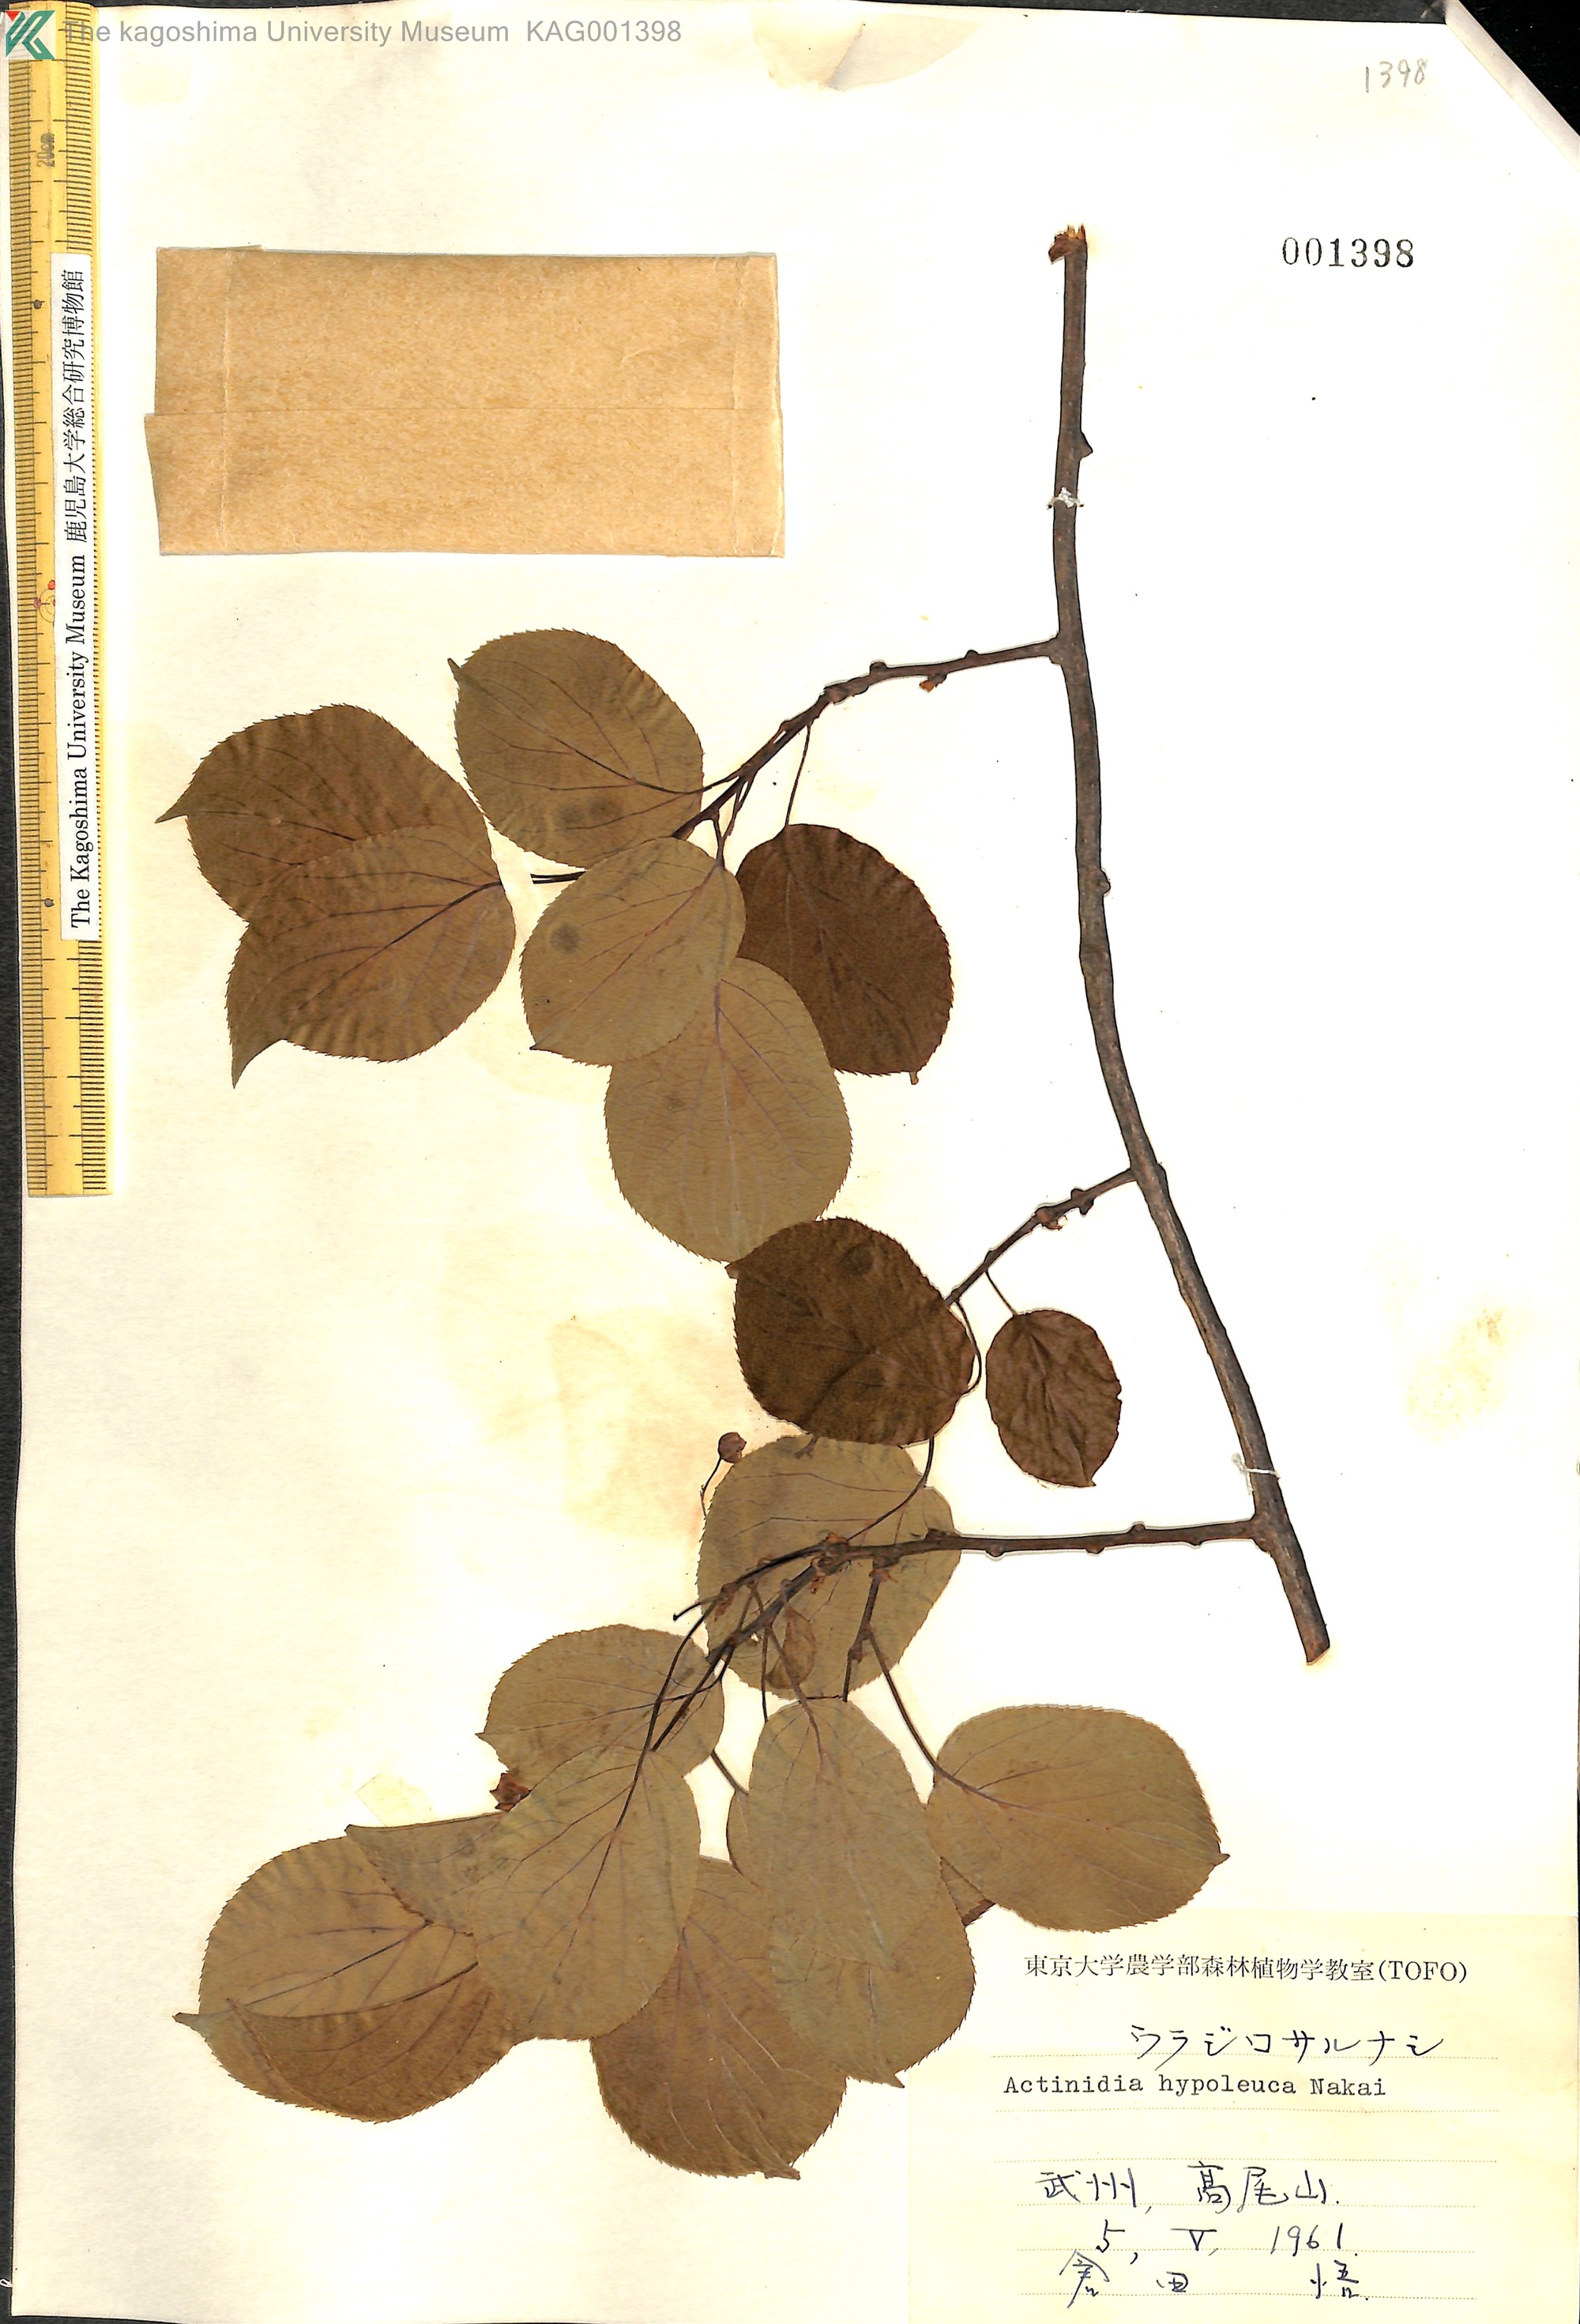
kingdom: Plantae
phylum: Tracheophyta
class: Magnoliopsida
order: Ericales
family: Actinidiaceae
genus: Actinidia
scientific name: Actinidia arguta
